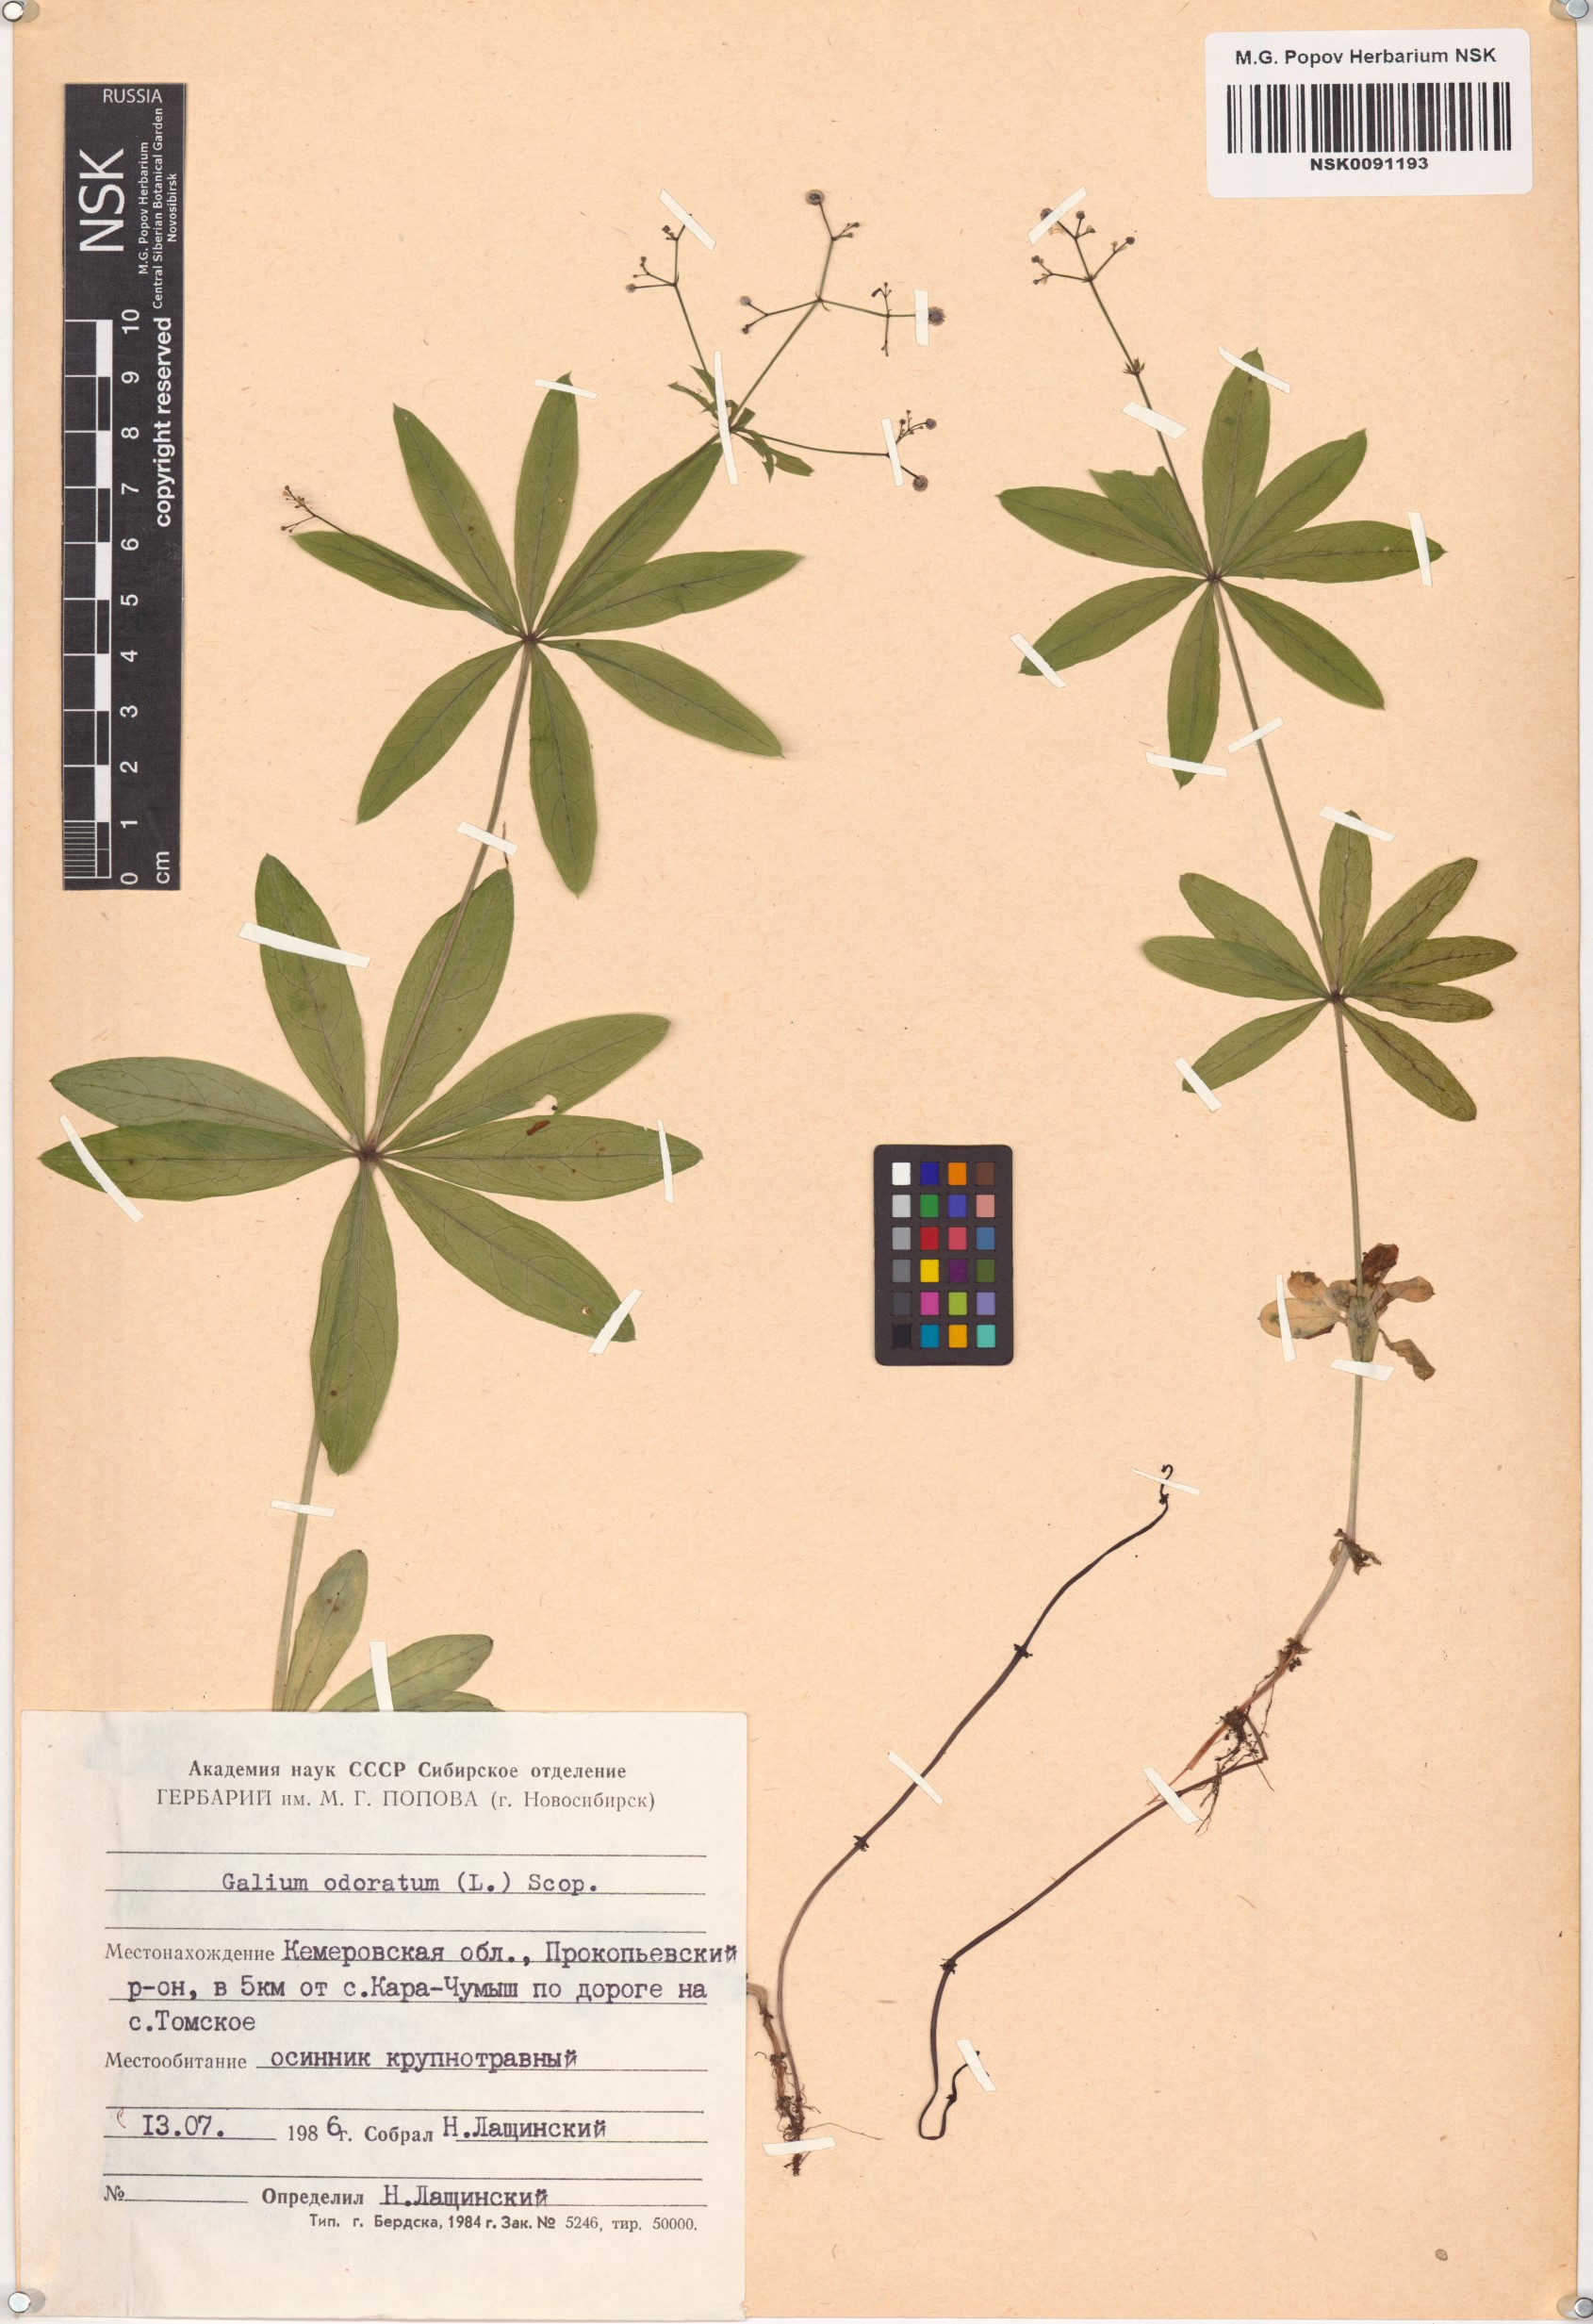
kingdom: Plantae
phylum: Tracheophyta
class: Magnoliopsida
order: Gentianales
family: Rubiaceae
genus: Galium
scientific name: Galium odoratum
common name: Sweet woodruff
